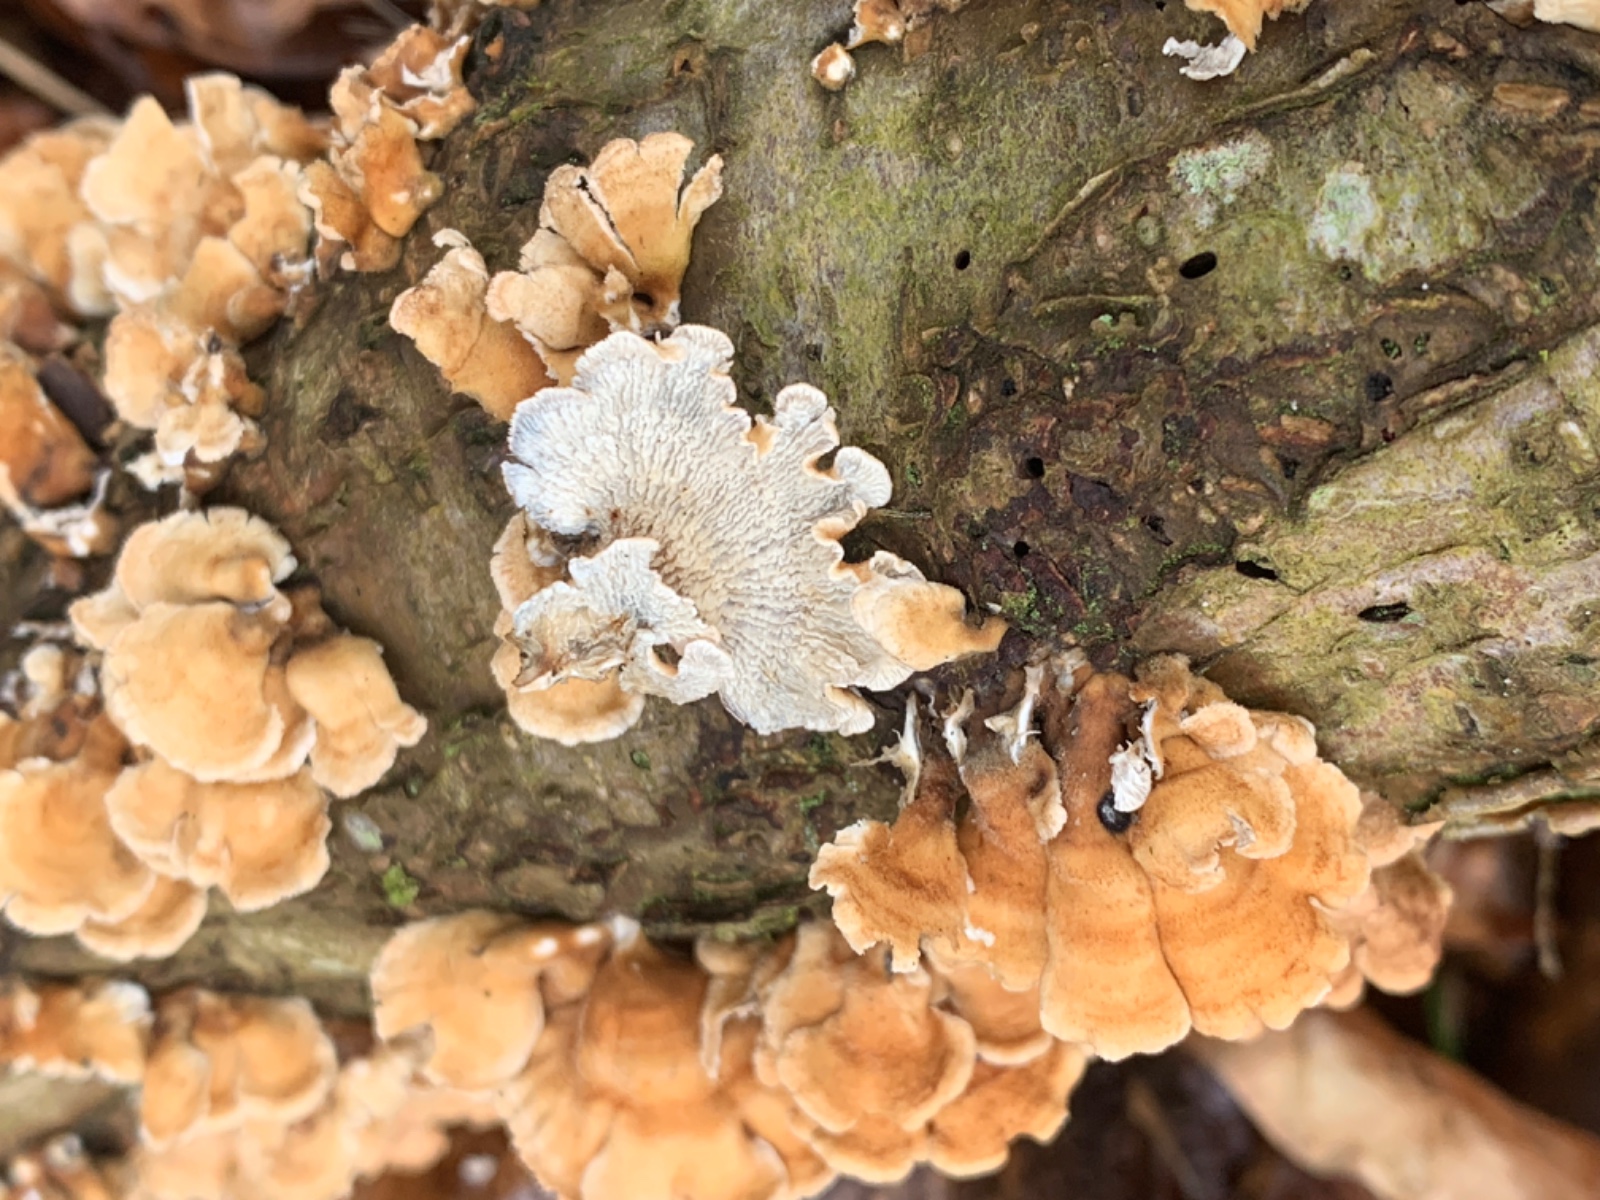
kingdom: Fungi
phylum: Basidiomycota
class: Agaricomycetes
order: Amylocorticiales
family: Amylocorticiaceae
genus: Plicaturopsis
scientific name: Plicaturopsis crispa
